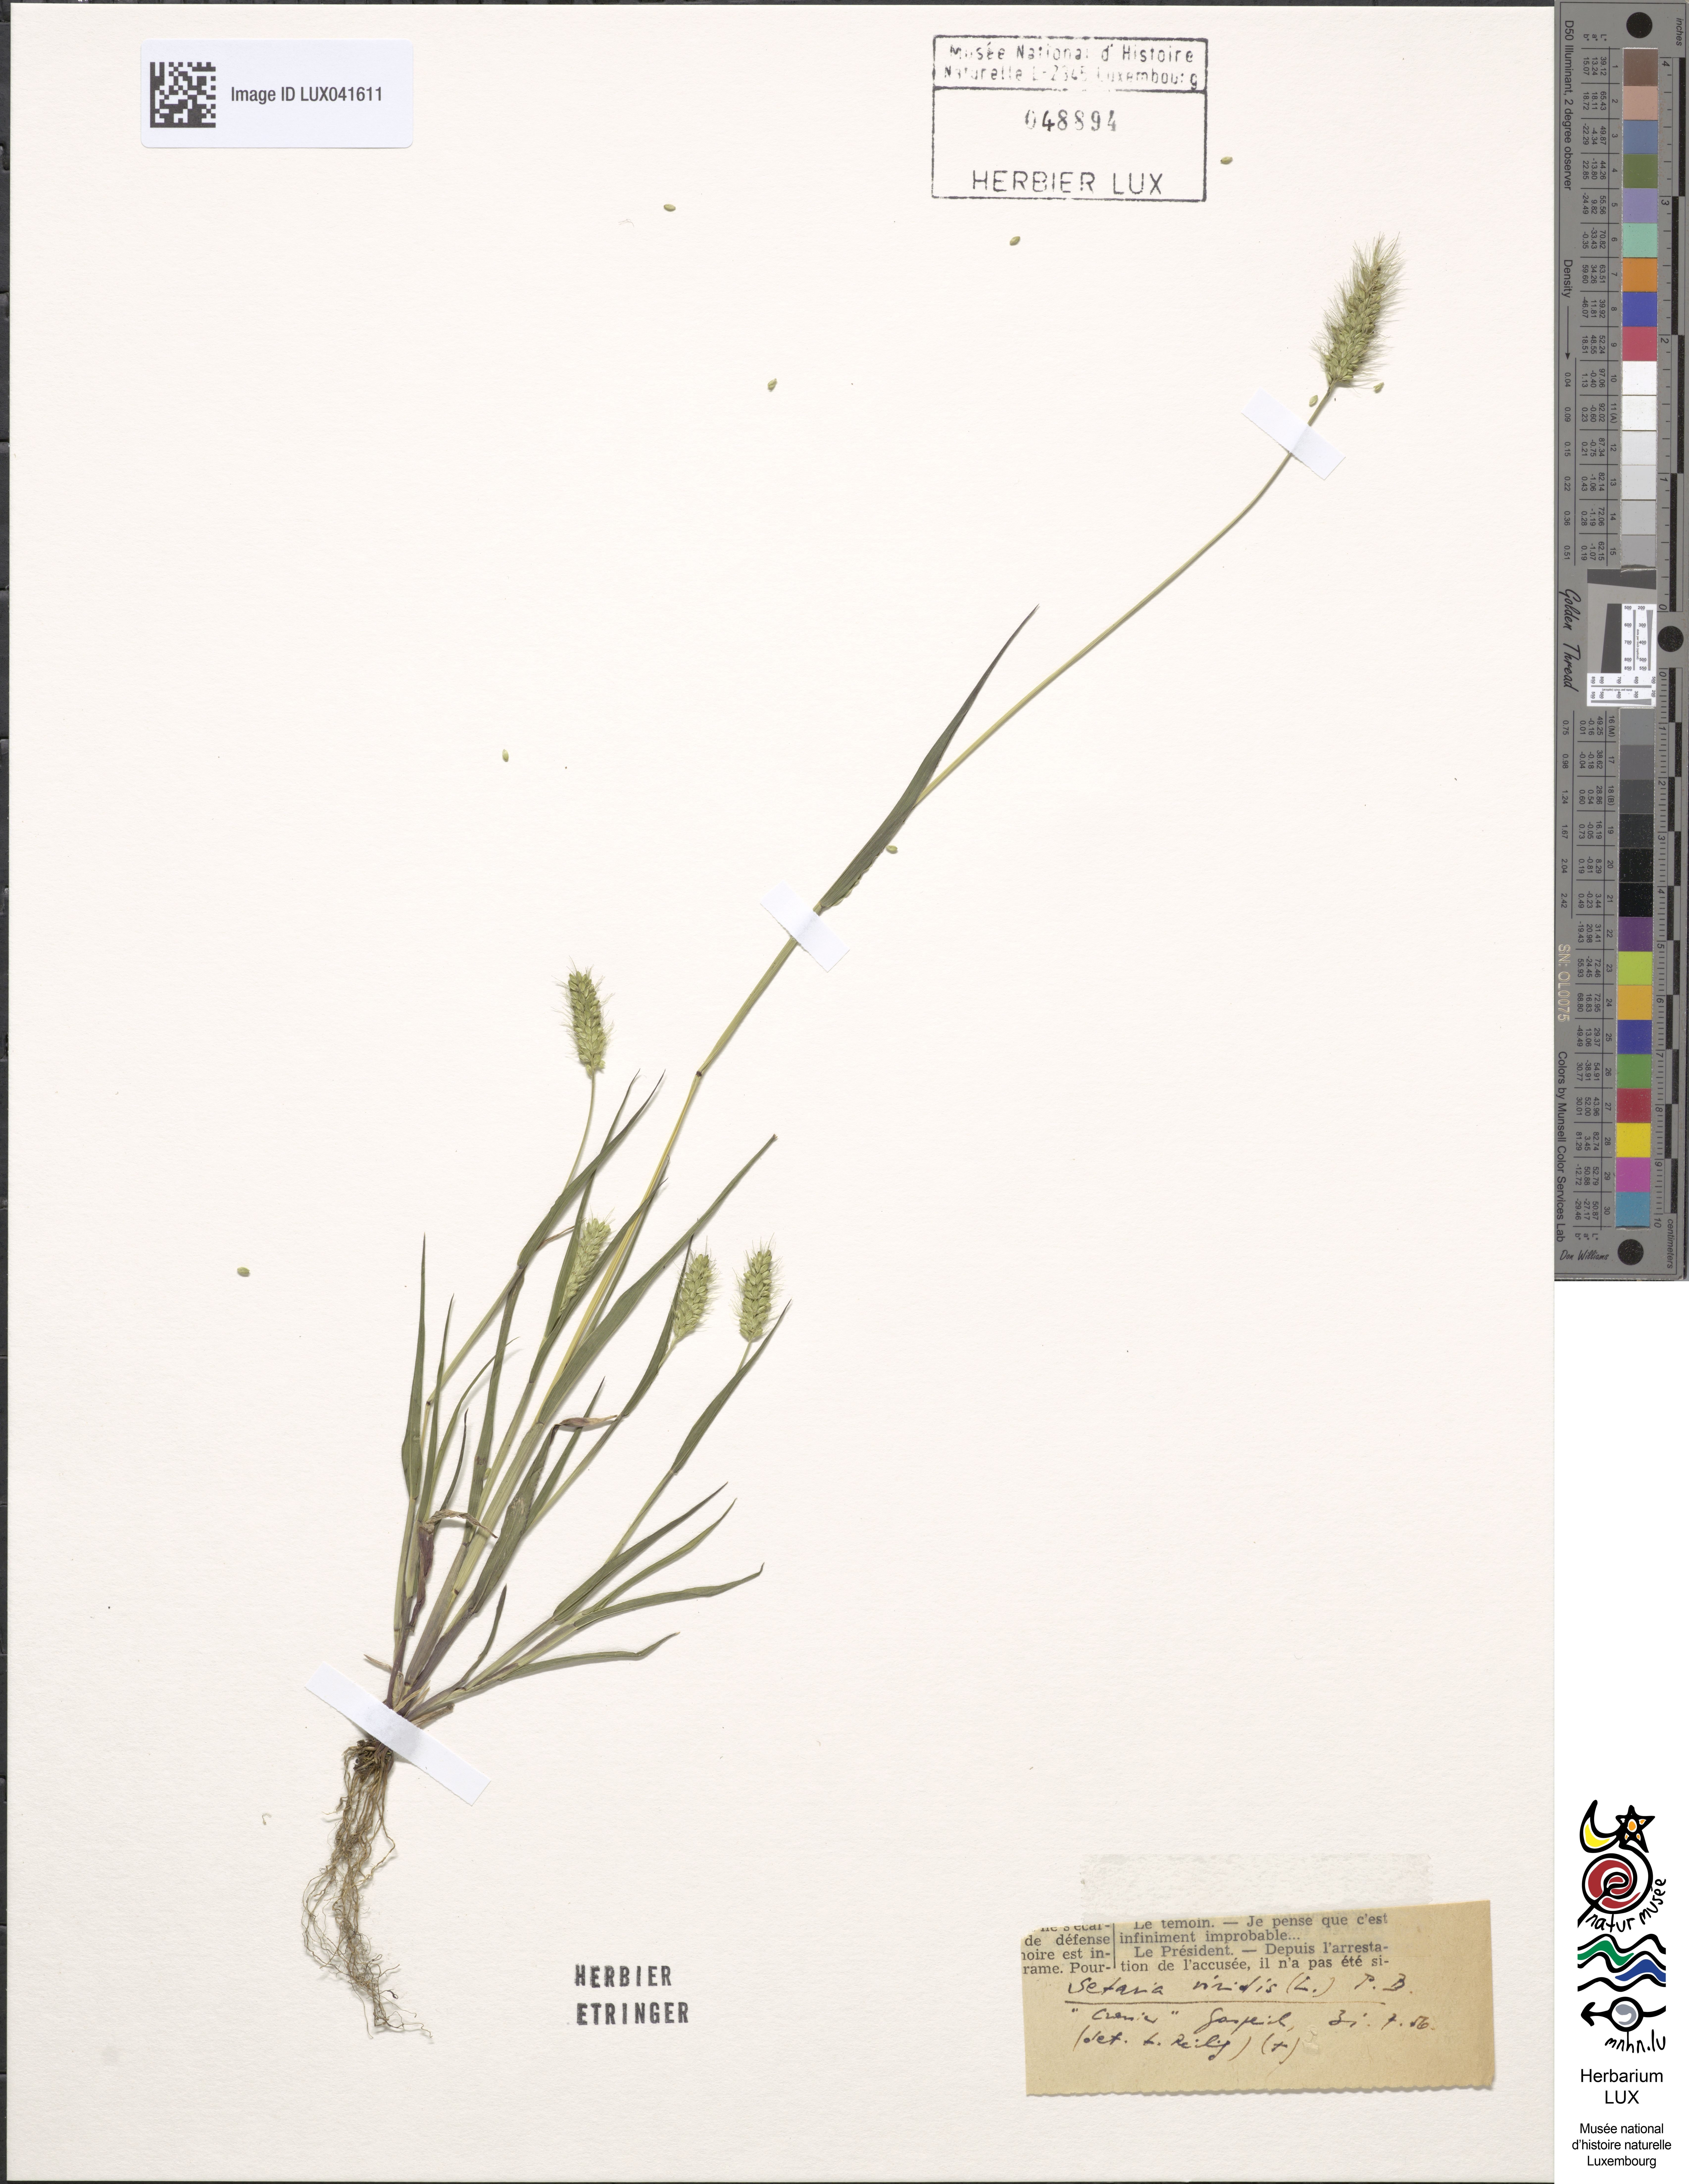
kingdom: Plantae
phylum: Tracheophyta
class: Liliopsida
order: Poales
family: Poaceae
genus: Setaria
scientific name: Setaria viridis
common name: Green bristlegrass
